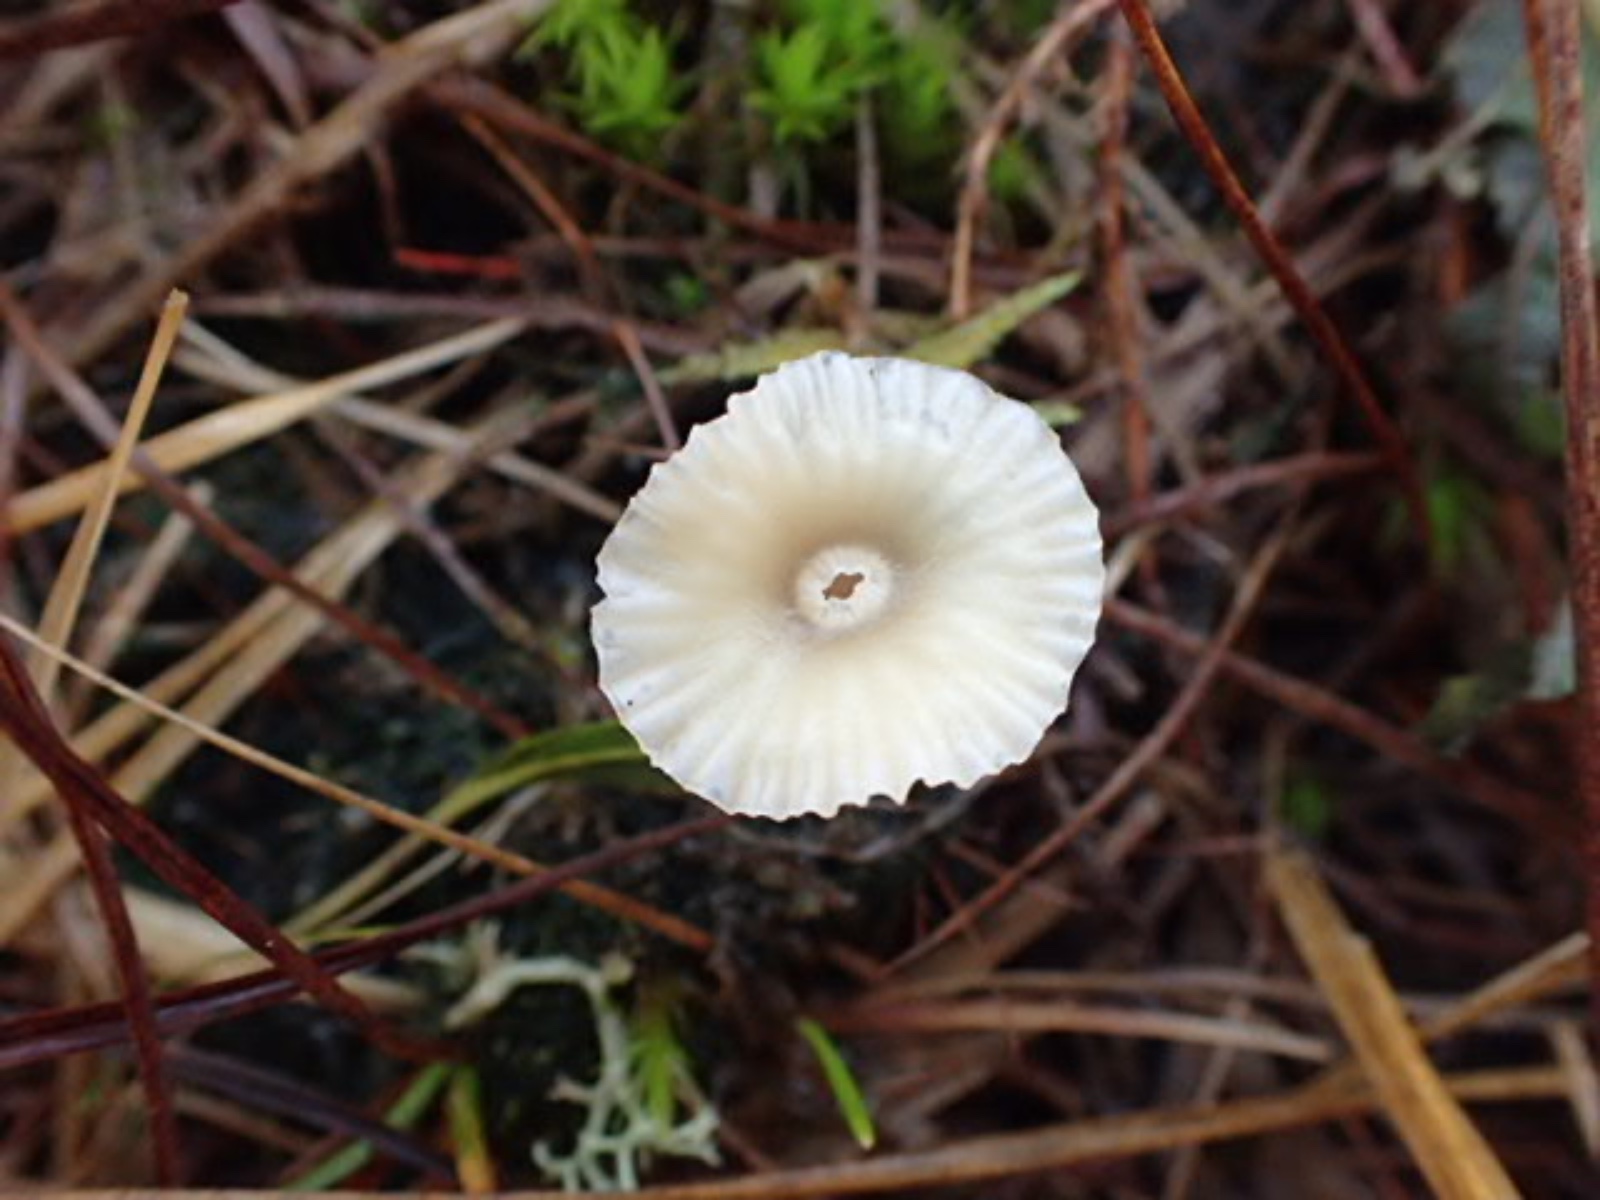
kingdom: Fungi
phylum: Basidiomycota
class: Agaricomycetes
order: Agaricales
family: Hygrophoraceae
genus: Lichenomphalia
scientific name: Lichenomphalia umbellifera
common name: tørve-lavhat
